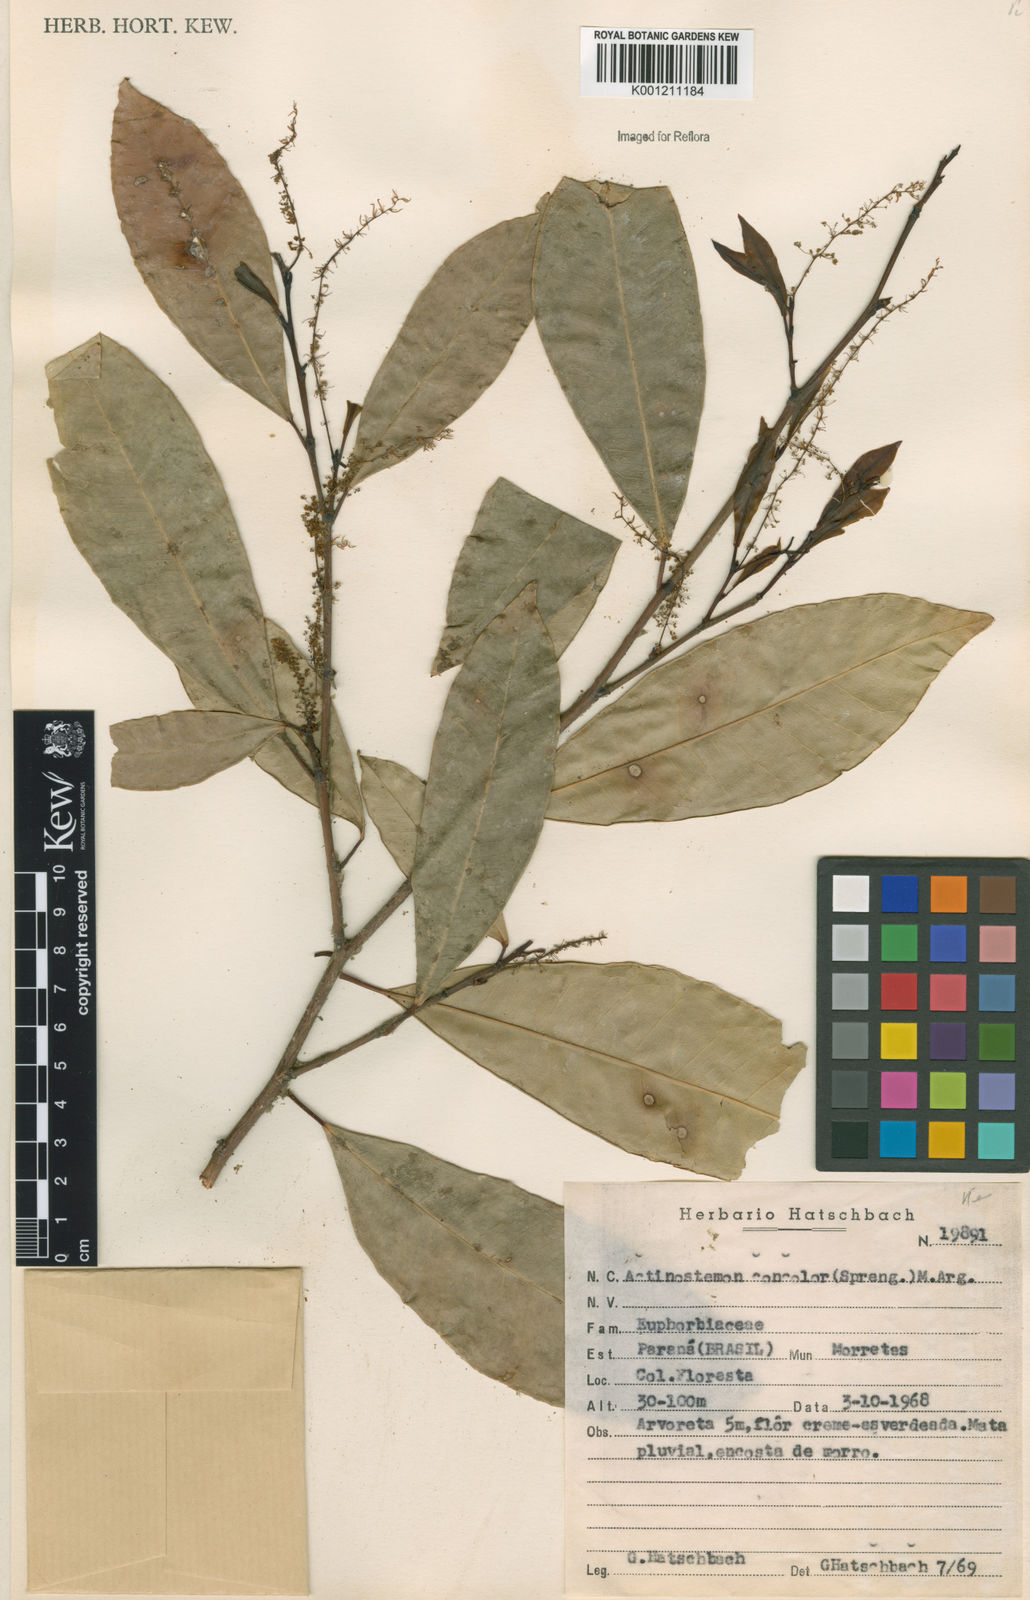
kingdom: Plantae
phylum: Tracheophyta
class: Magnoliopsida
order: Malpighiales
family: Euphorbiaceae
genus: Actinostemon
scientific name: Actinostemon
